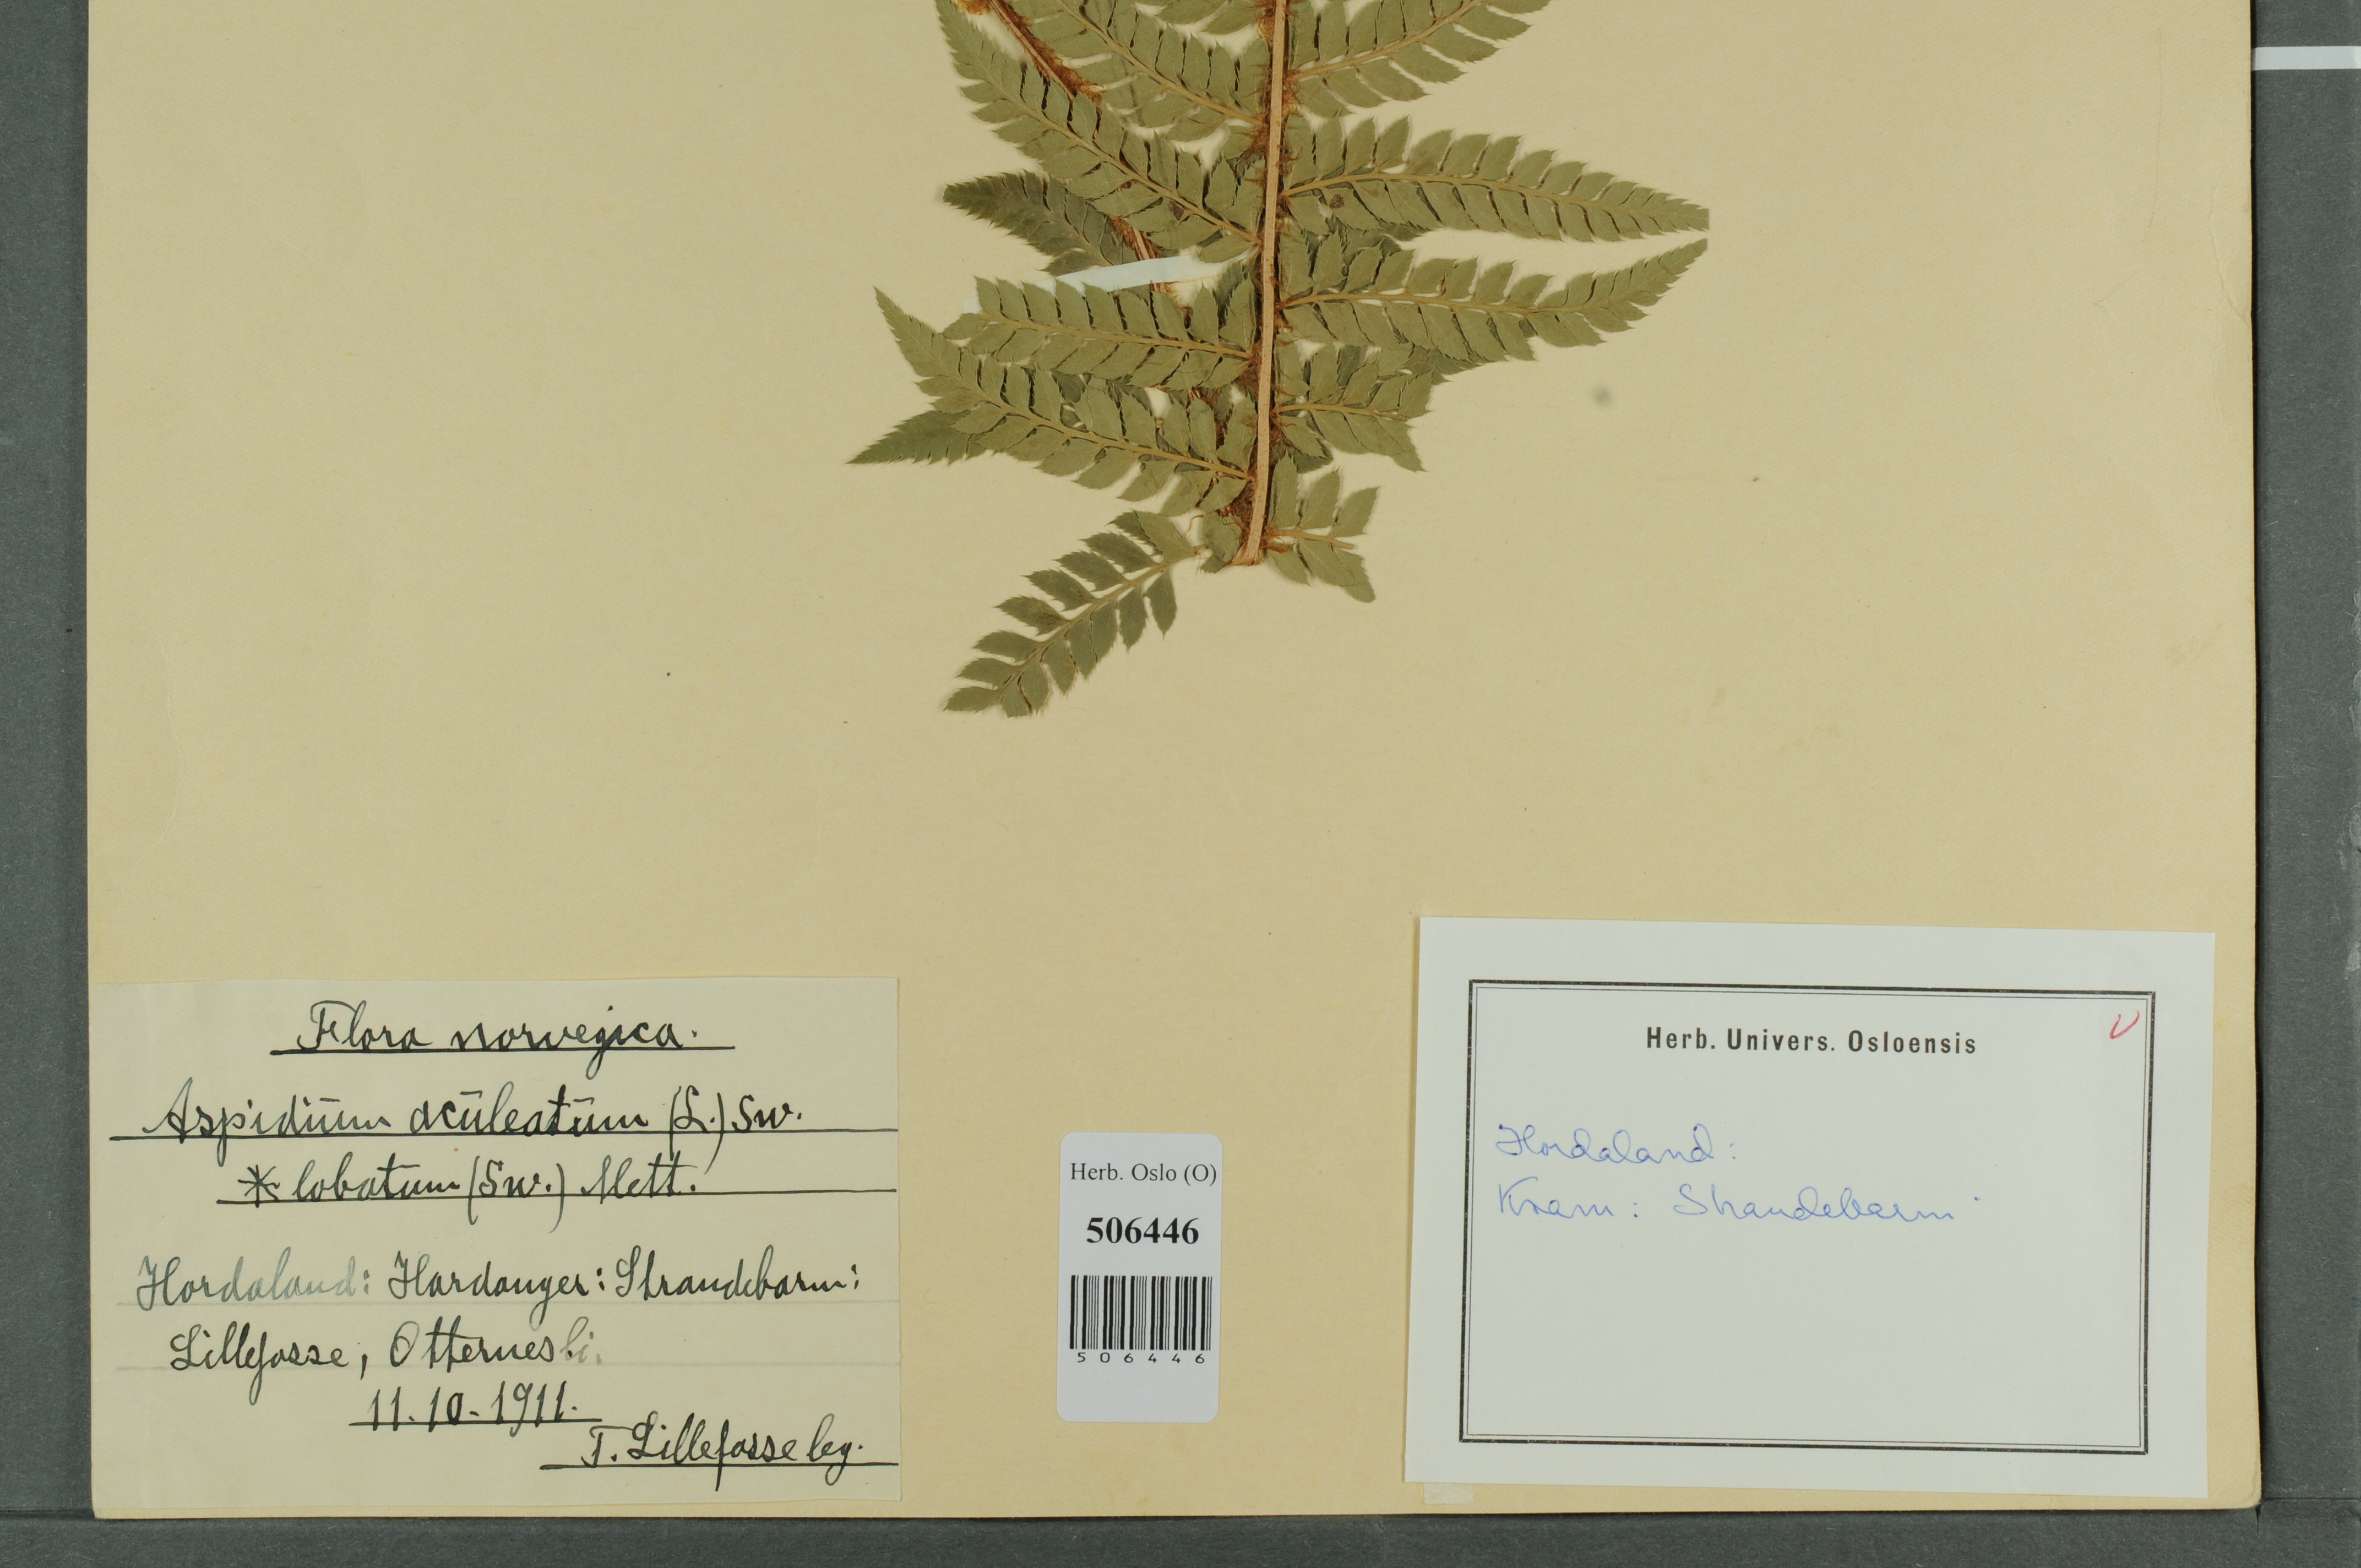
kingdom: Plantae
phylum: Tracheophyta
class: Polypodiopsida
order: Polypodiales
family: Dryopteridaceae
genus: Polystichum
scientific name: Polystichum aculeatum
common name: Hard shield-fern
